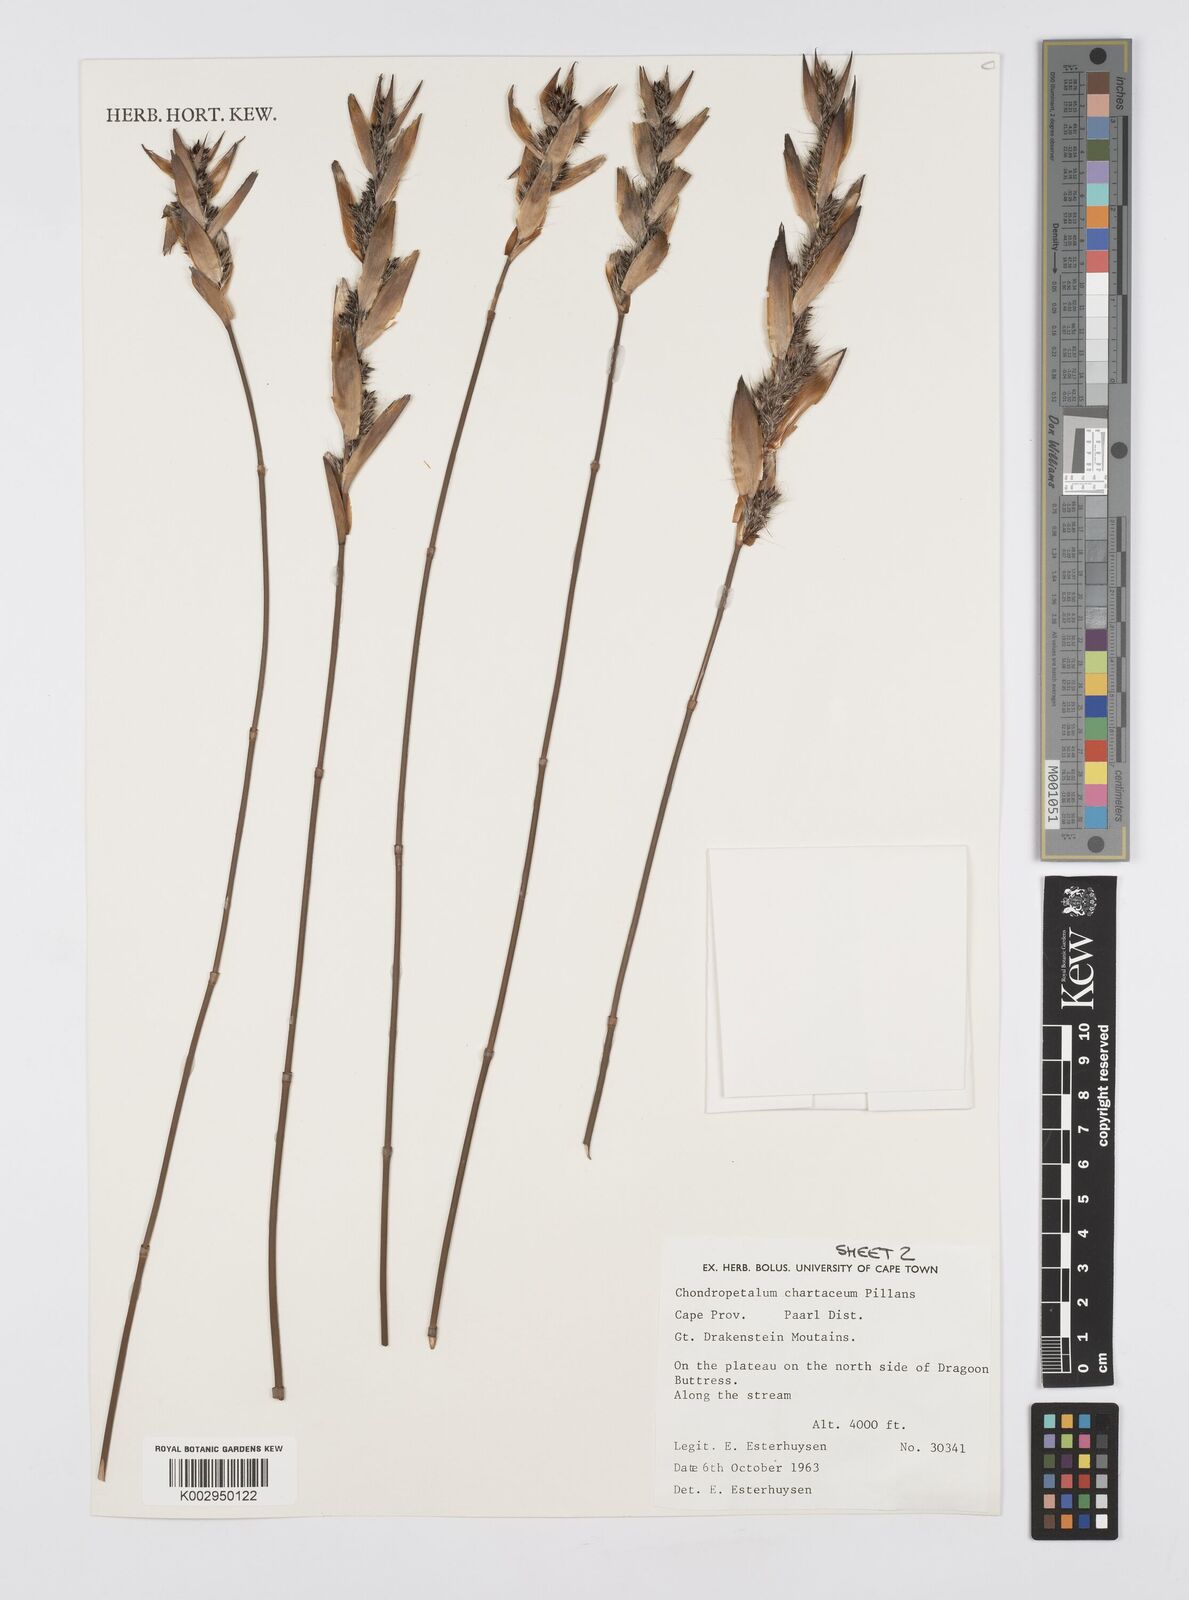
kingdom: Plantae
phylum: Tracheophyta
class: Liliopsida
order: Poales
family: Restionaceae
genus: Askidiosperma
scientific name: Askidiosperma chartaceum
